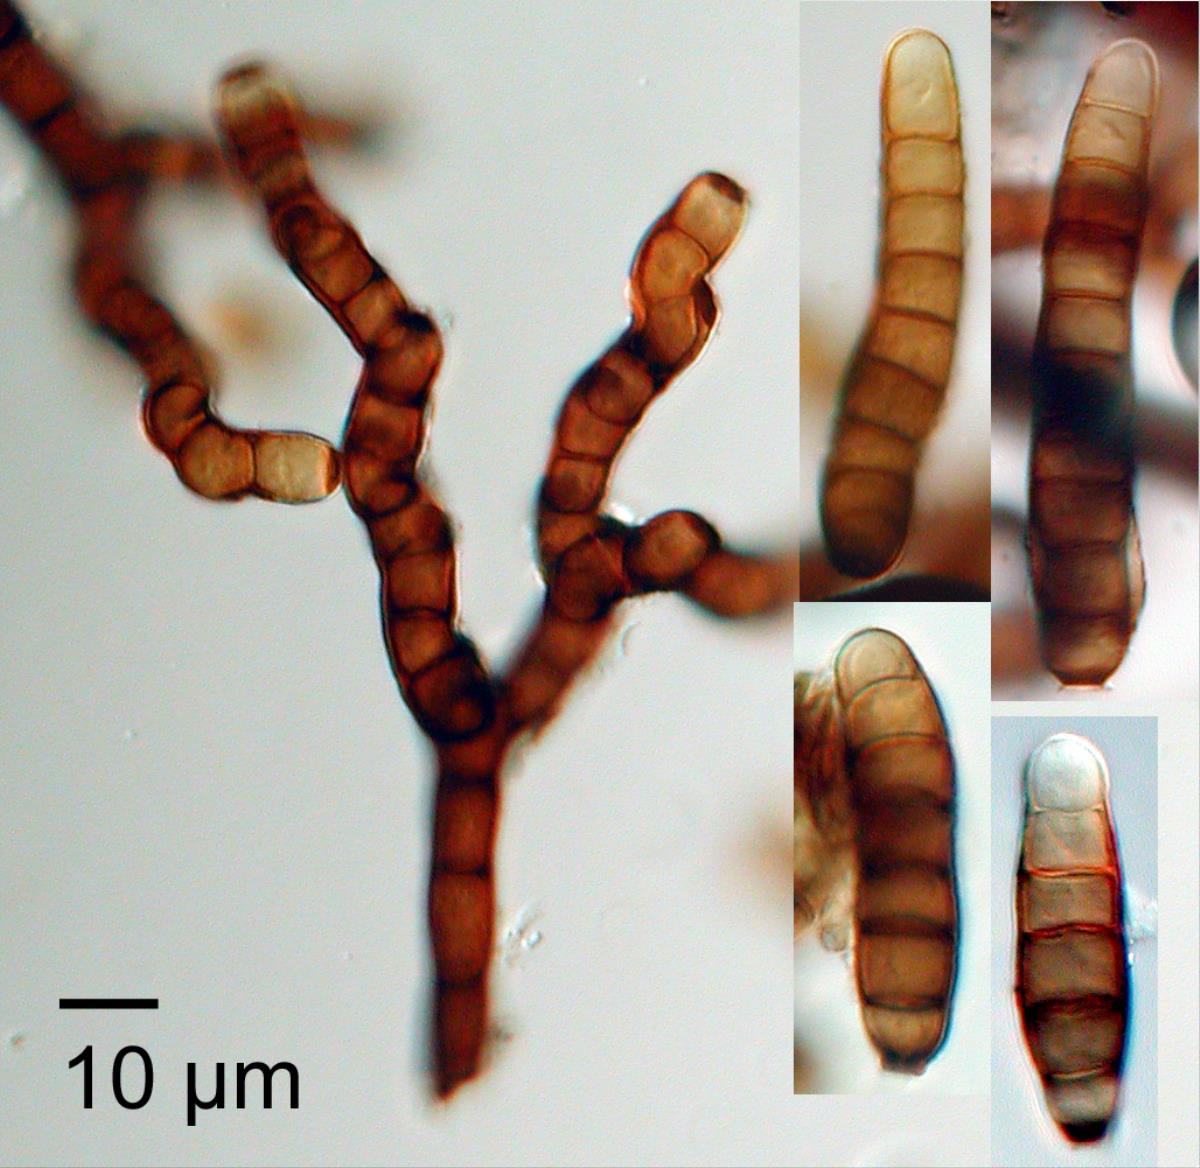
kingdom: Fungi
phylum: Ascomycota
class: Dothideomycetes
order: Pleosporales
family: Torulaceae
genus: Dendryphion
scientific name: Dendryphion nanum
